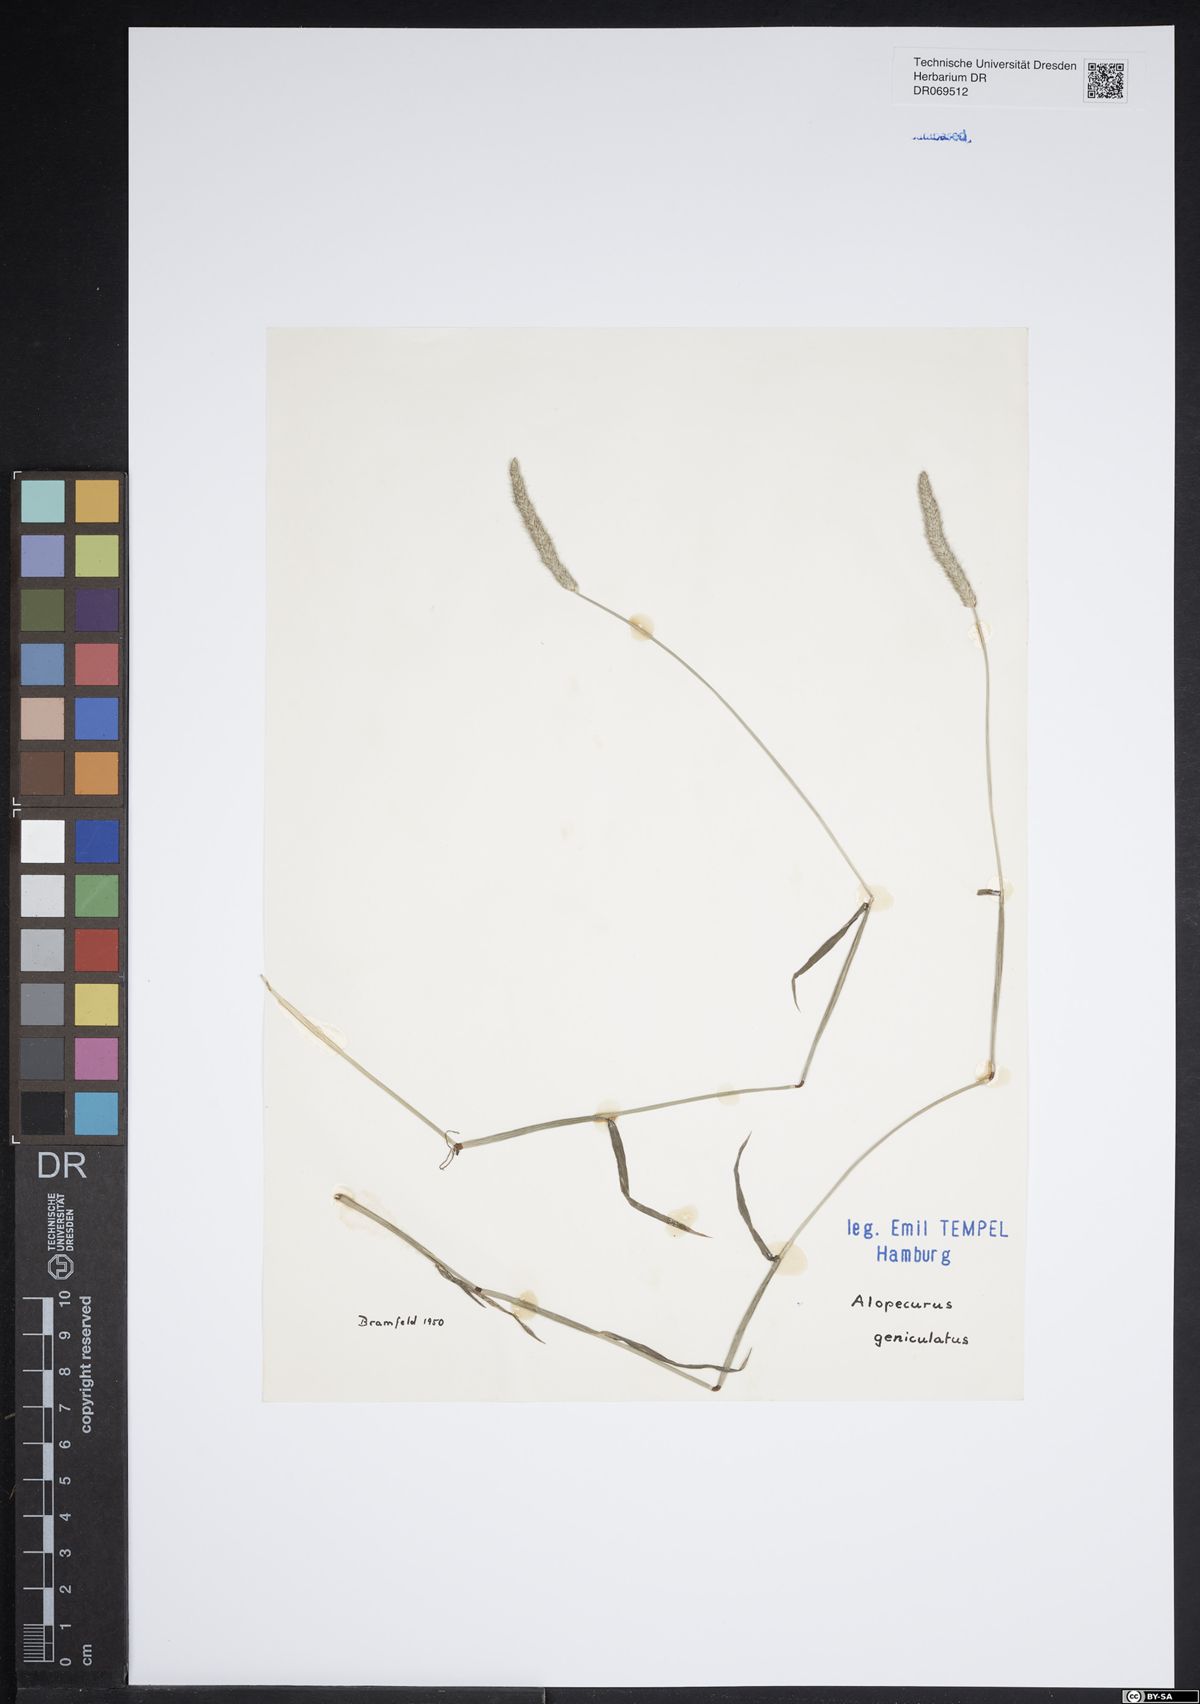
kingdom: Plantae
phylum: Tracheophyta
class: Liliopsida
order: Poales
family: Poaceae
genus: Alopecurus
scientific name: Alopecurus geniculatus
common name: Water foxtail
